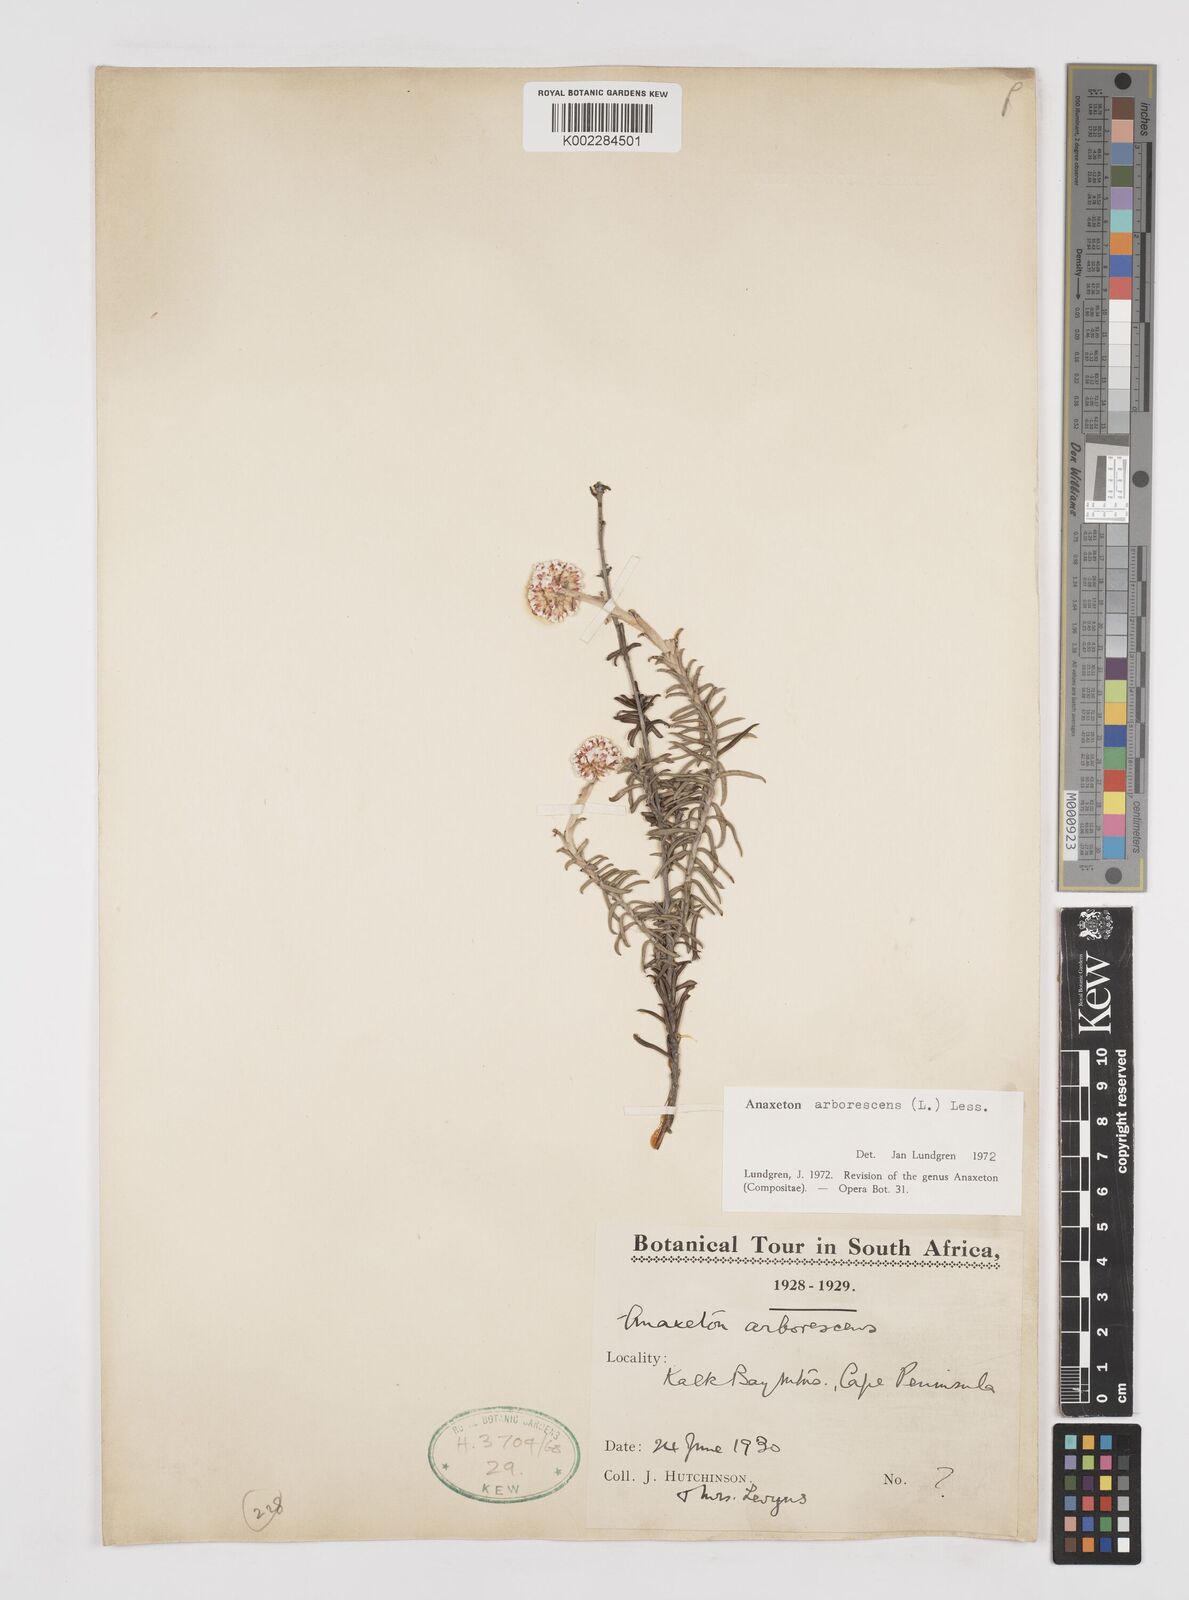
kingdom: Plantae
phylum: Tracheophyta
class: Magnoliopsida
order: Asterales
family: Asteraceae
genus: Anaxeton
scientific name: Anaxeton arborescens
